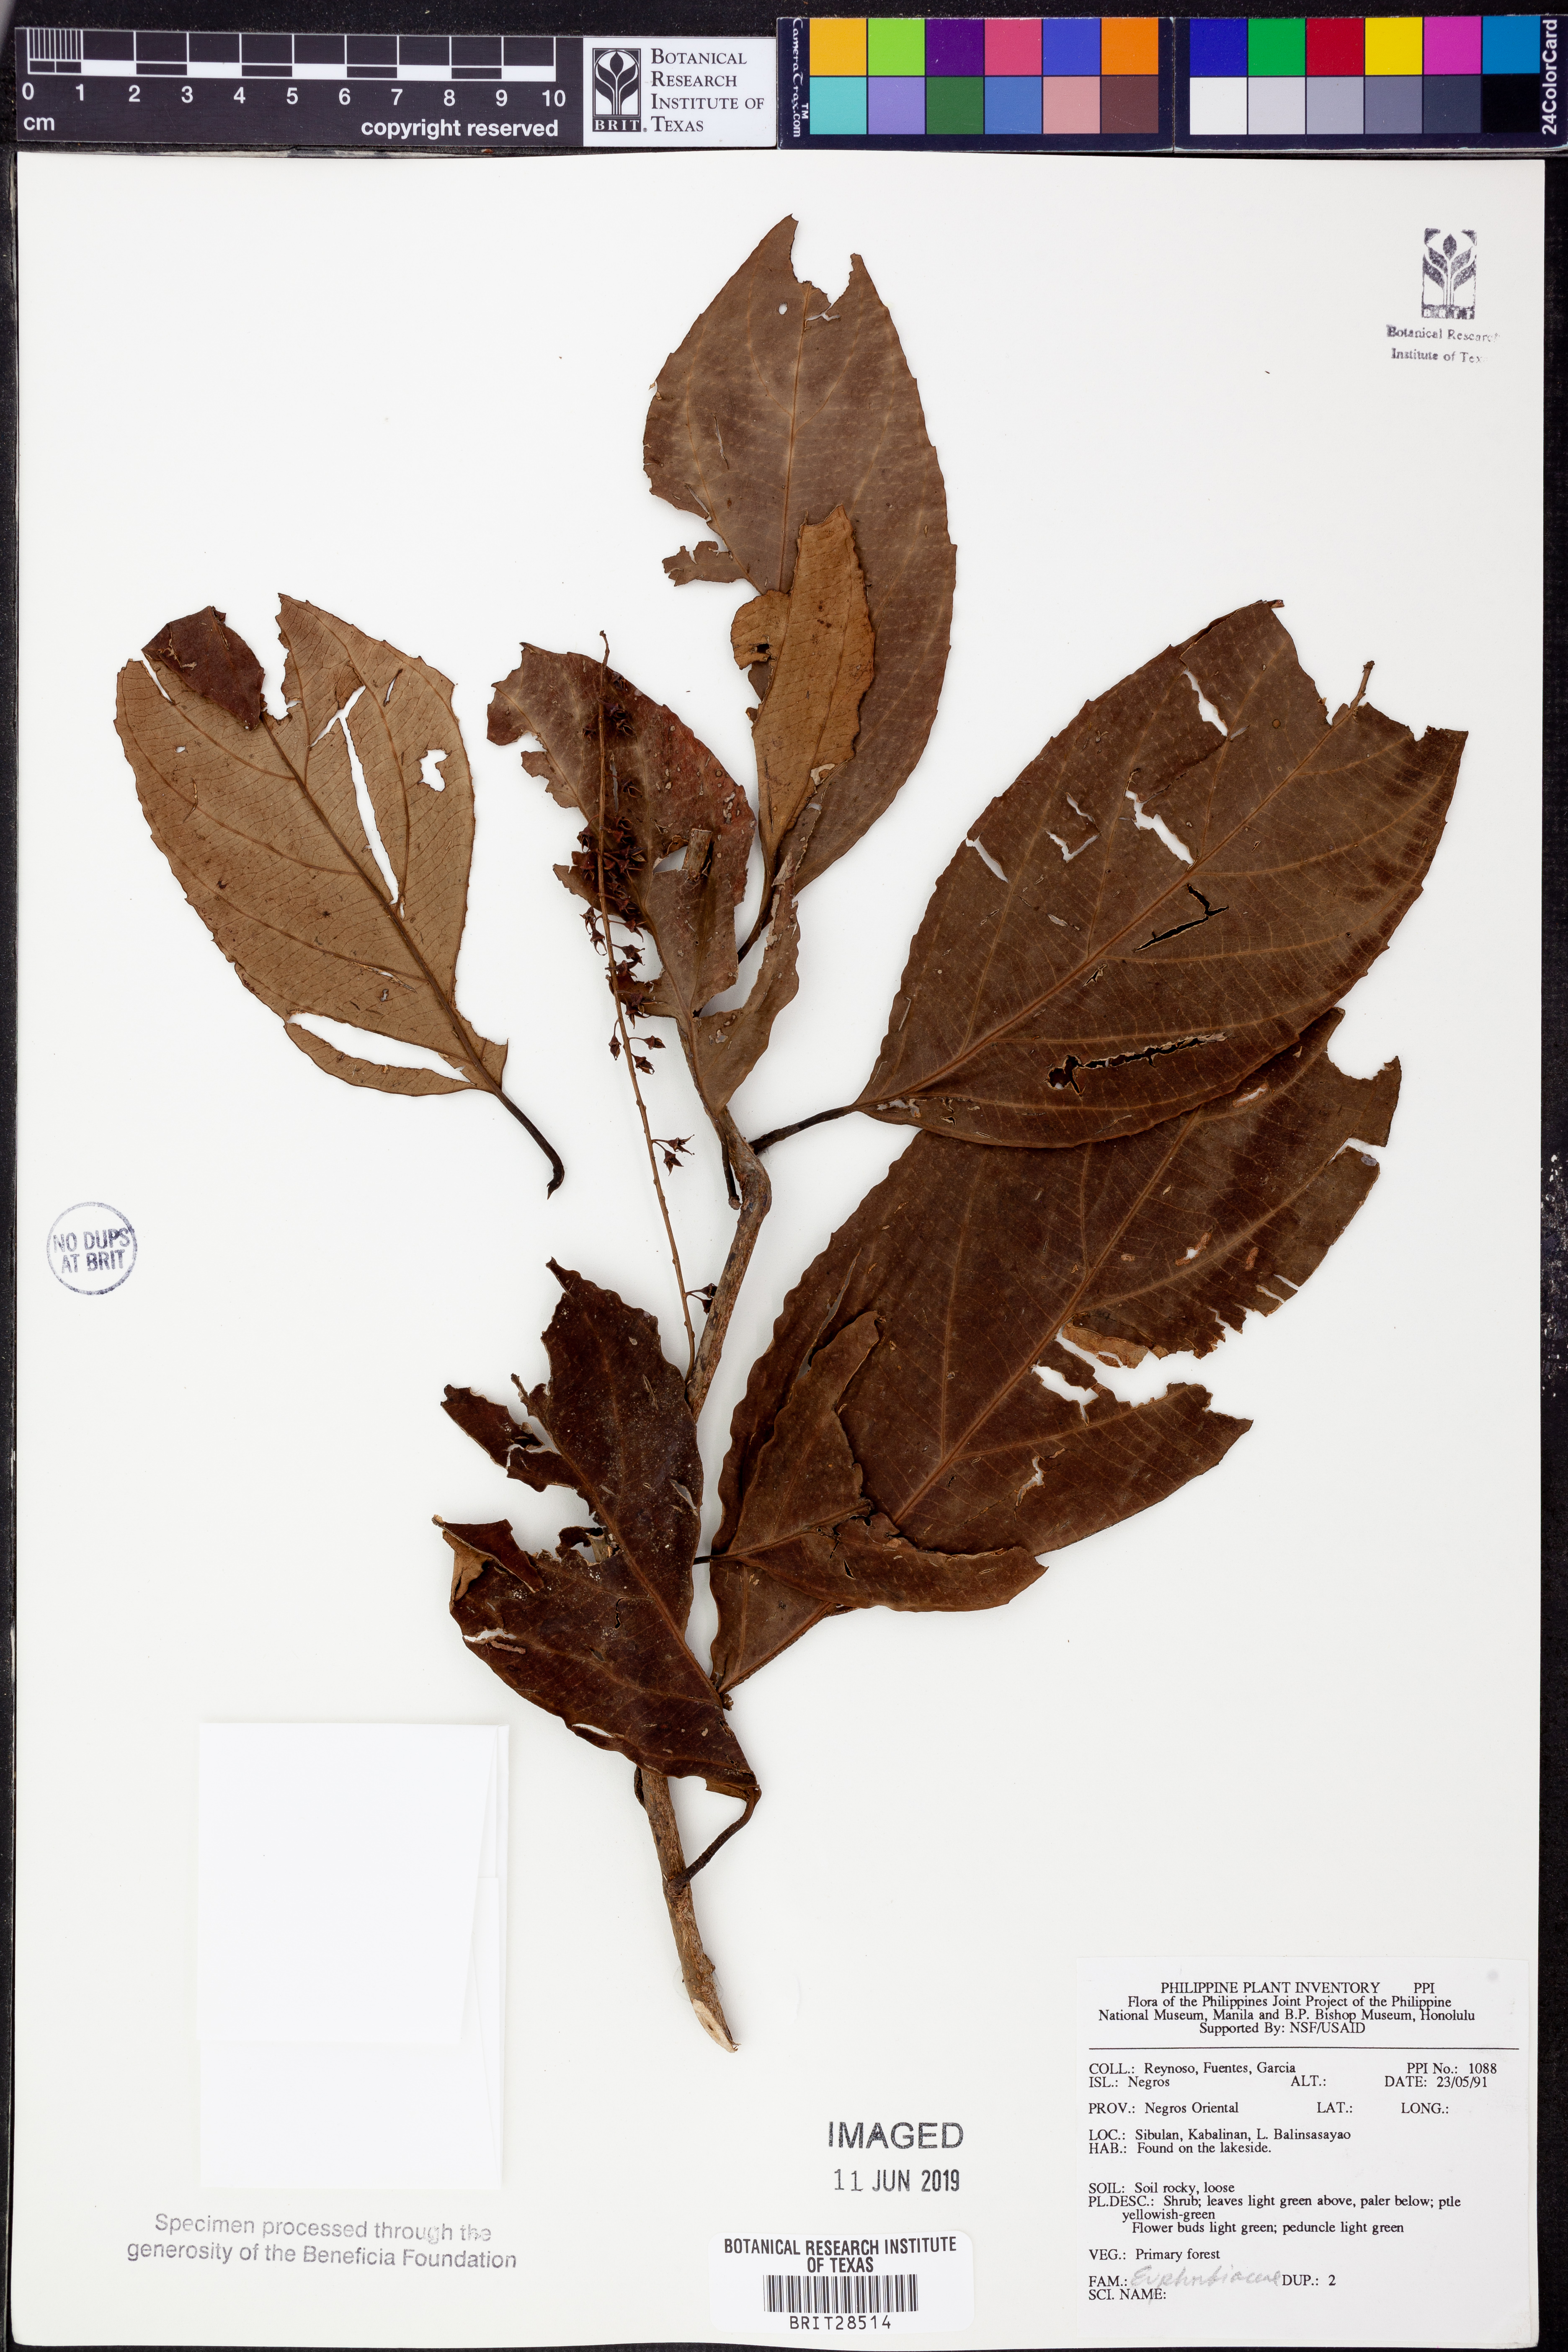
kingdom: Plantae
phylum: Tracheophyta
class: Magnoliopsida
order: Malpighiales
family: Euphorbiaceae
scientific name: Euphorbiaceae
